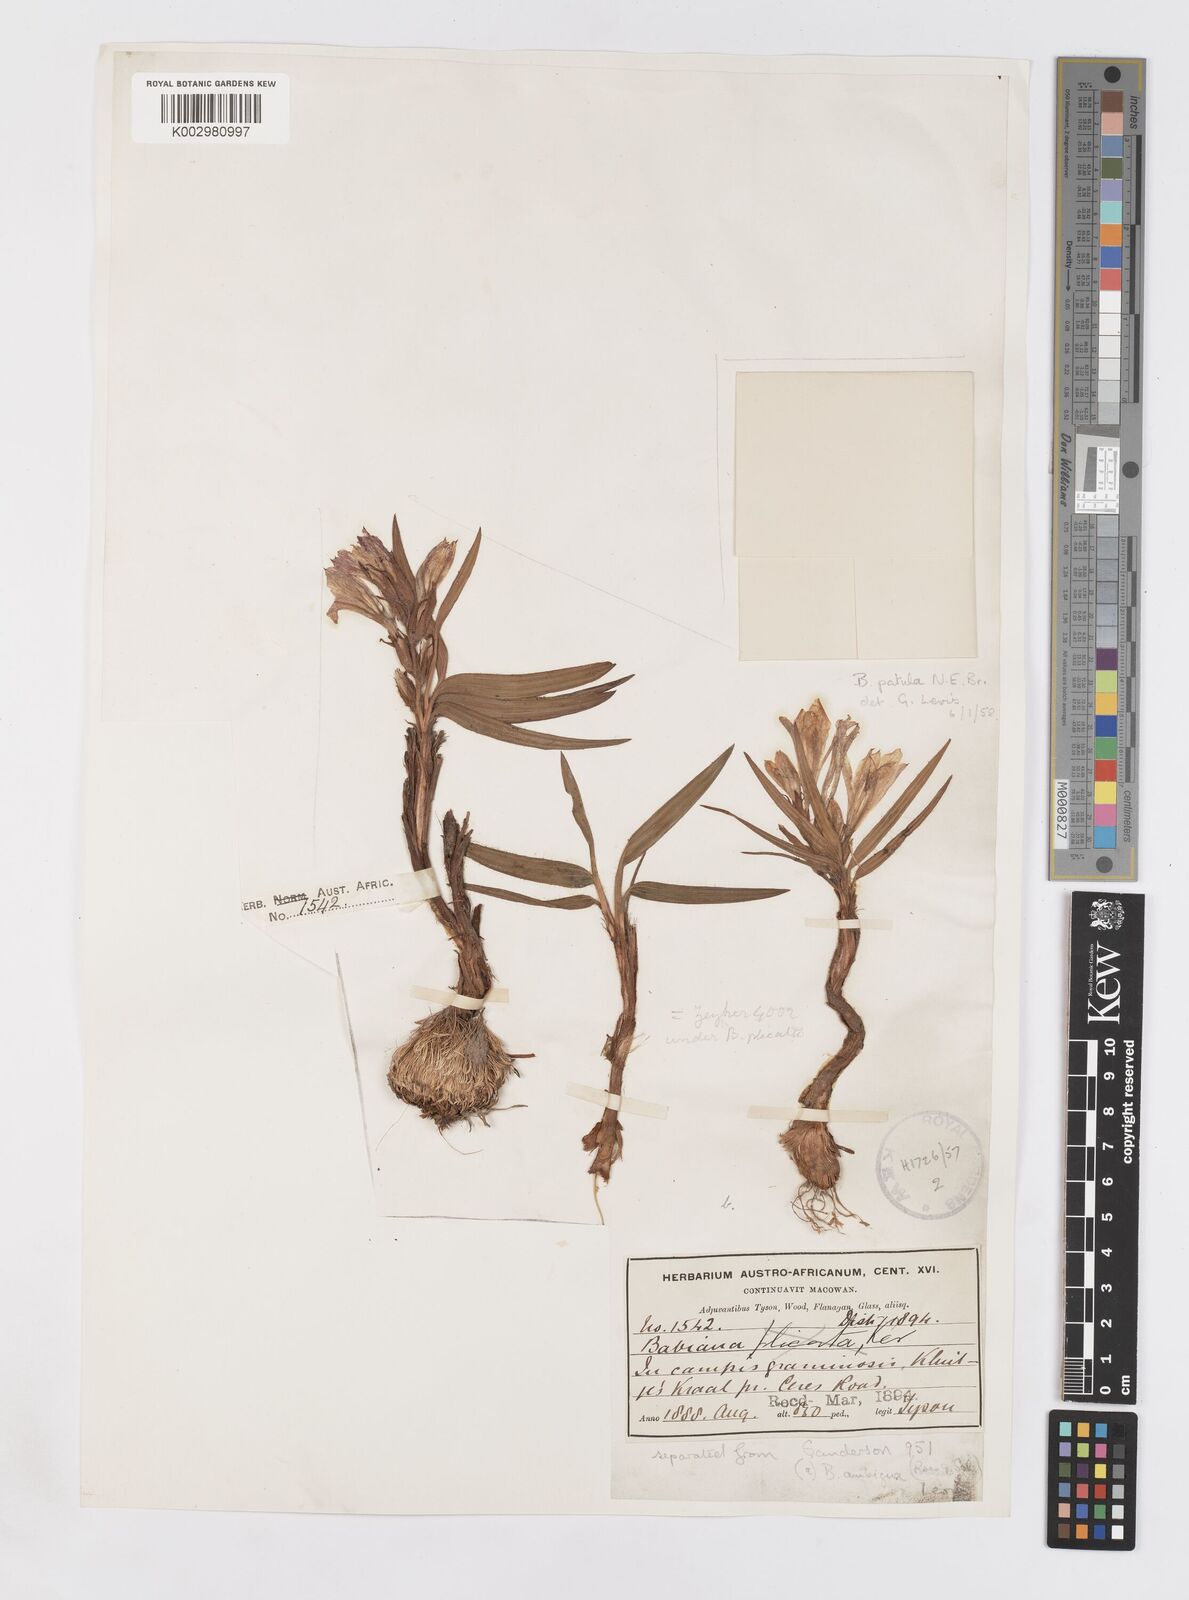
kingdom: Plantae
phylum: Tracheophyta
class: Liliopsida
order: Asparagales
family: Iridaceae
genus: Babiana
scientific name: Babiana patula
